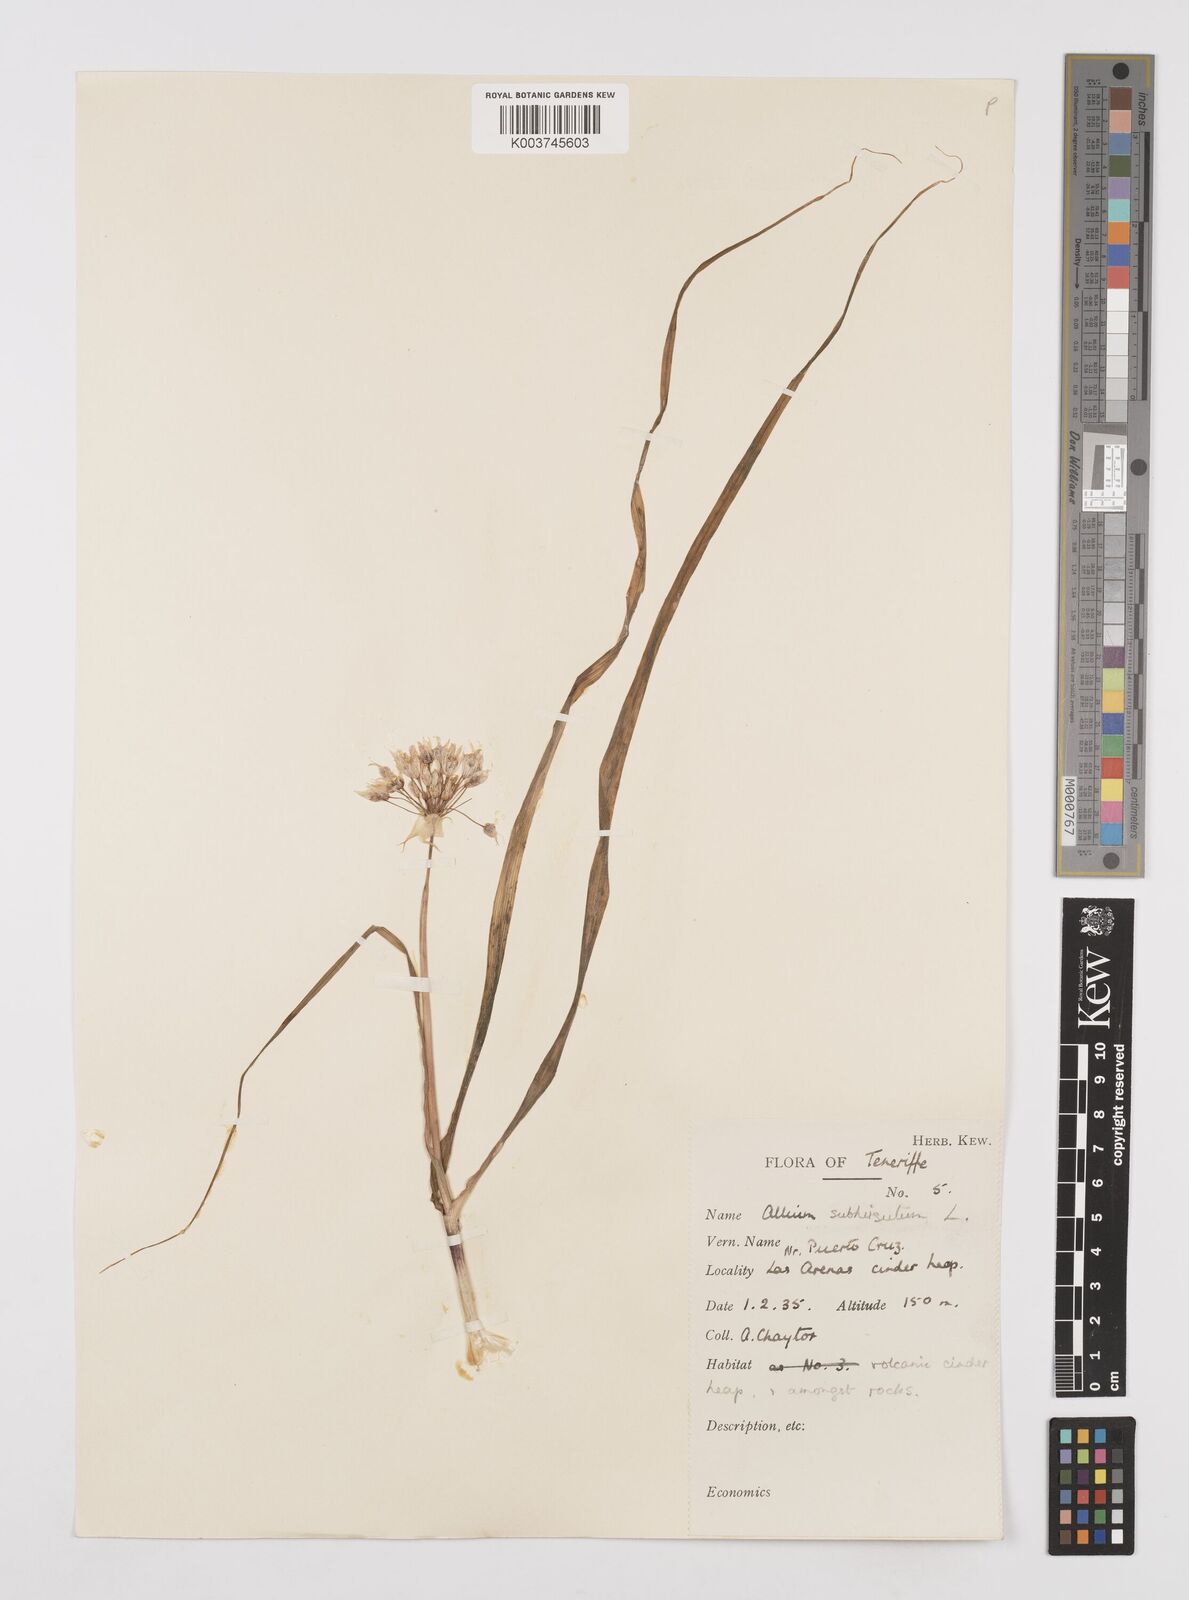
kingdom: Plantae
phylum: Tracheophyta
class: Liliopsida
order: Asparagales
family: Amaryllidaceae
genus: Allium
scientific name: Allium subvillosum
